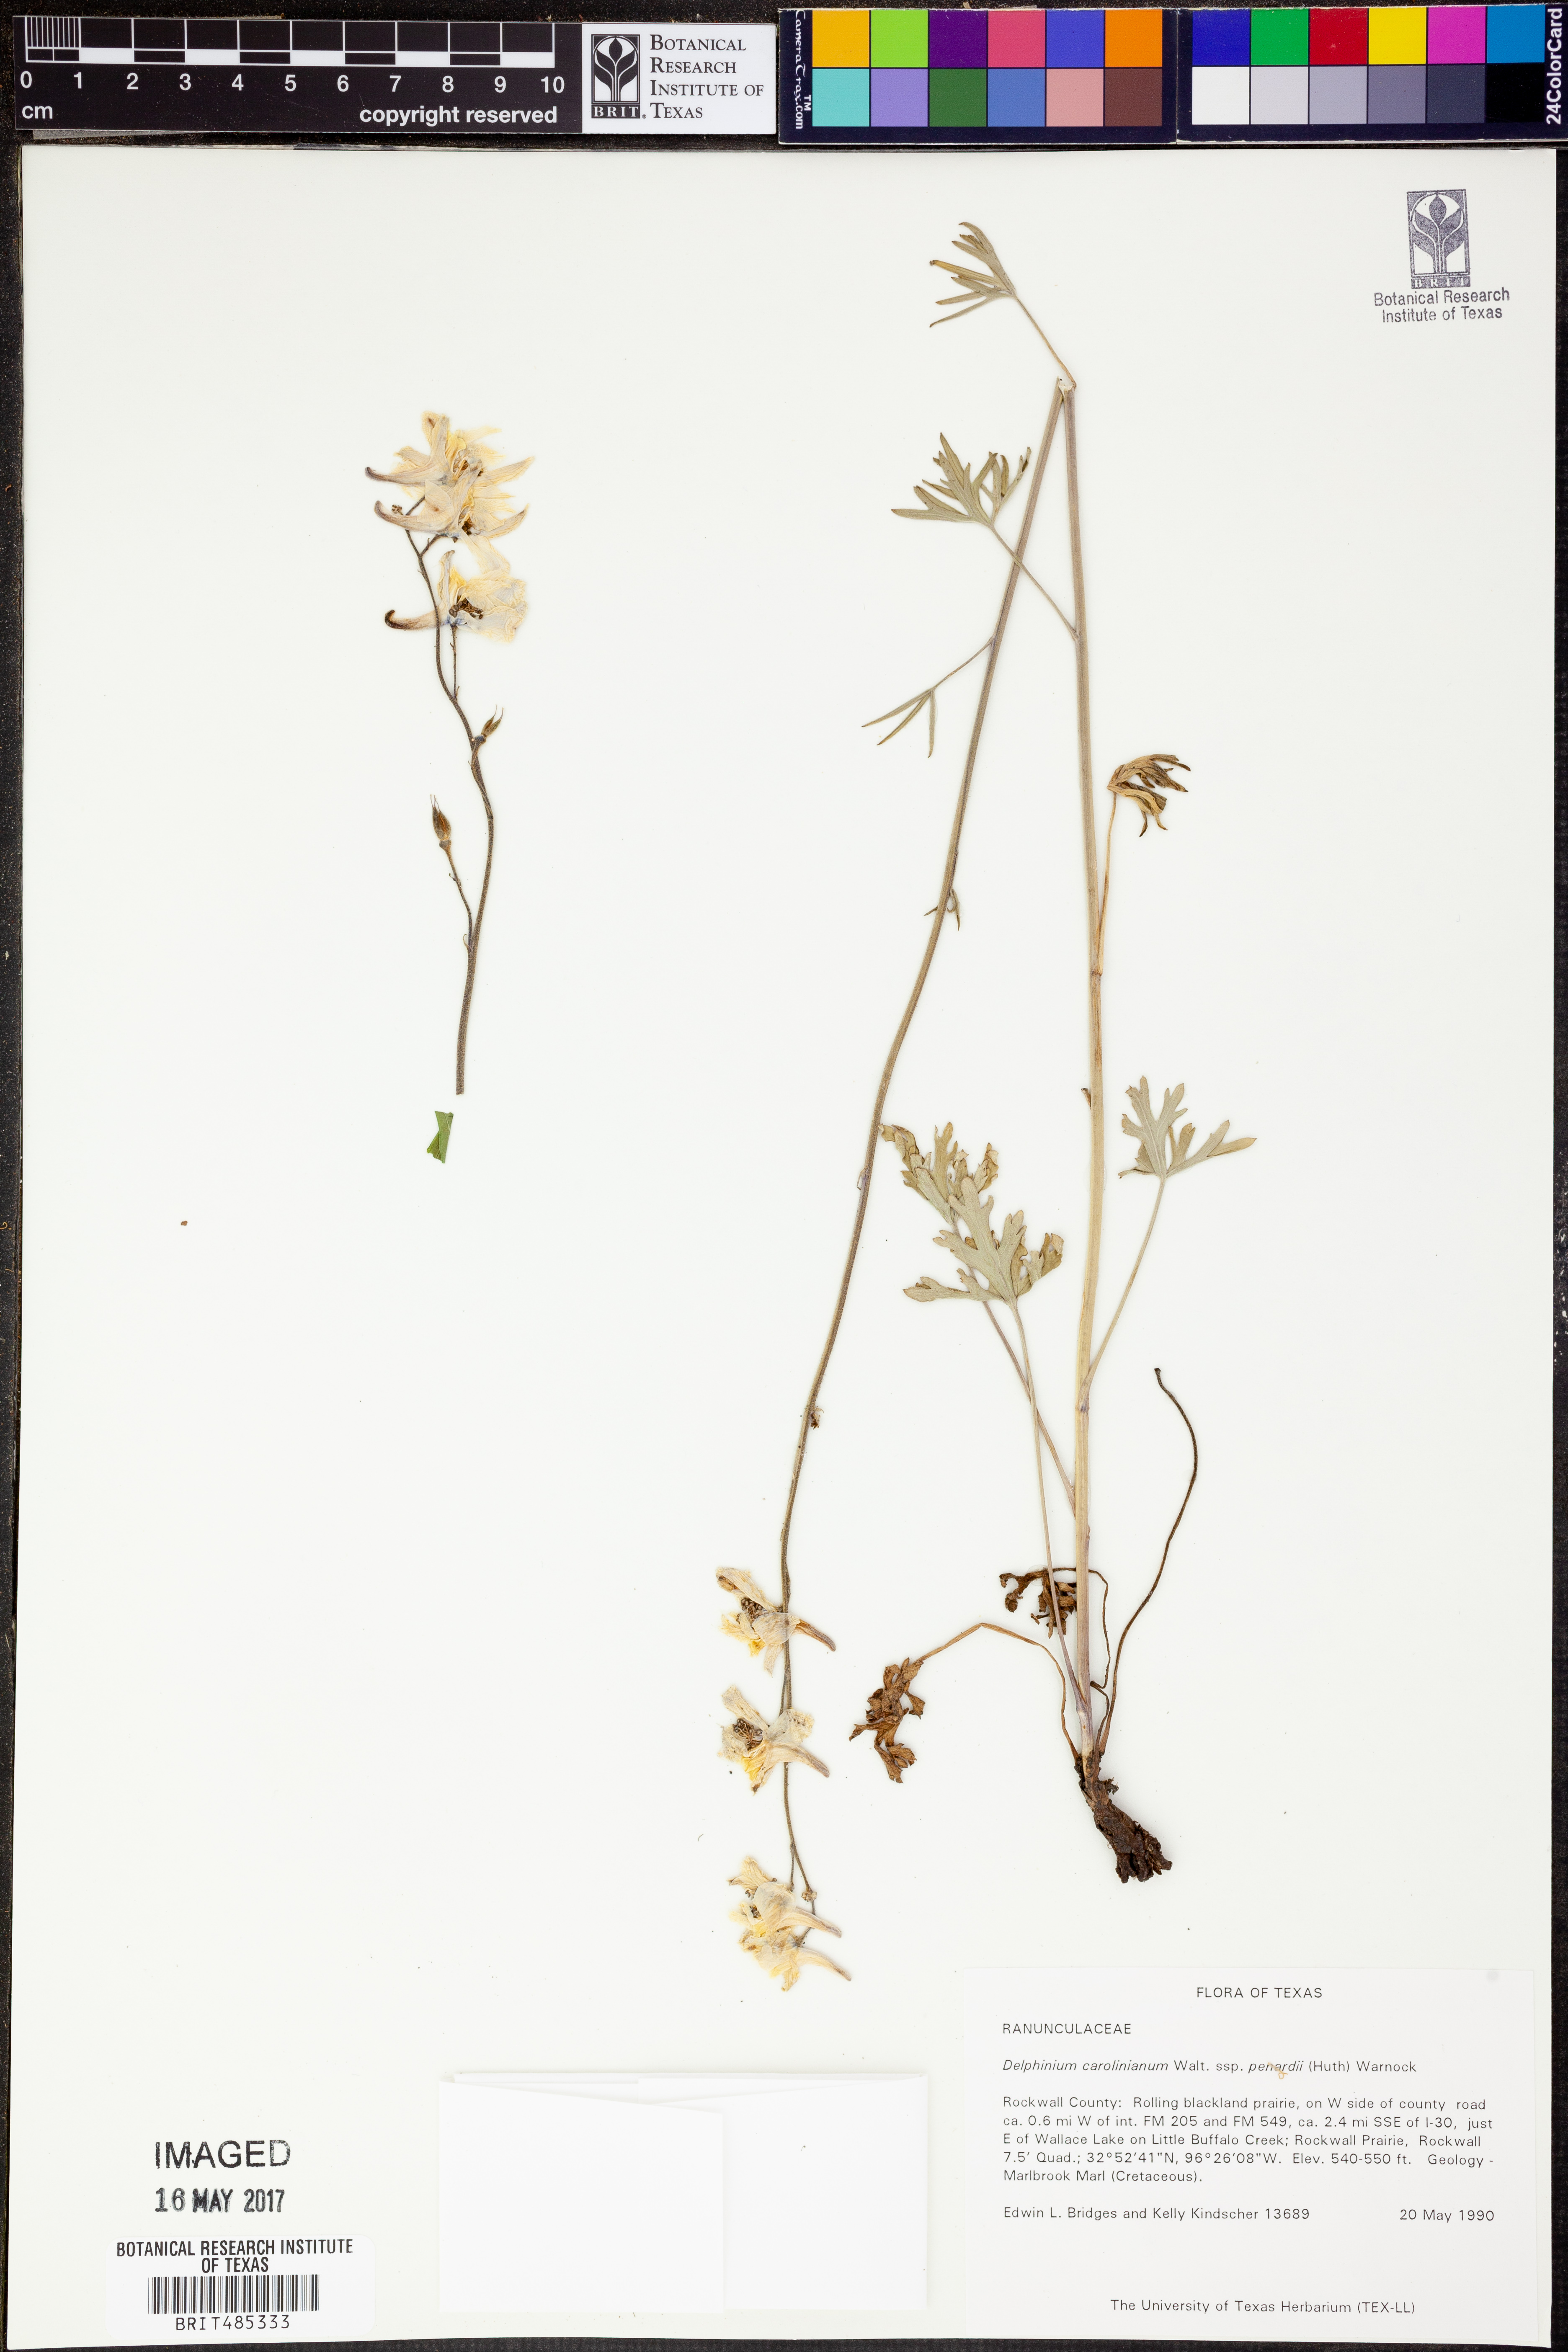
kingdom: Plantae
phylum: Tracheophyta
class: Magnoliopsida
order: Ranunculales
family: Ranunculaceae
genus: Delphinium
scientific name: Delphinium carolinianum
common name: Carolina larkspur
